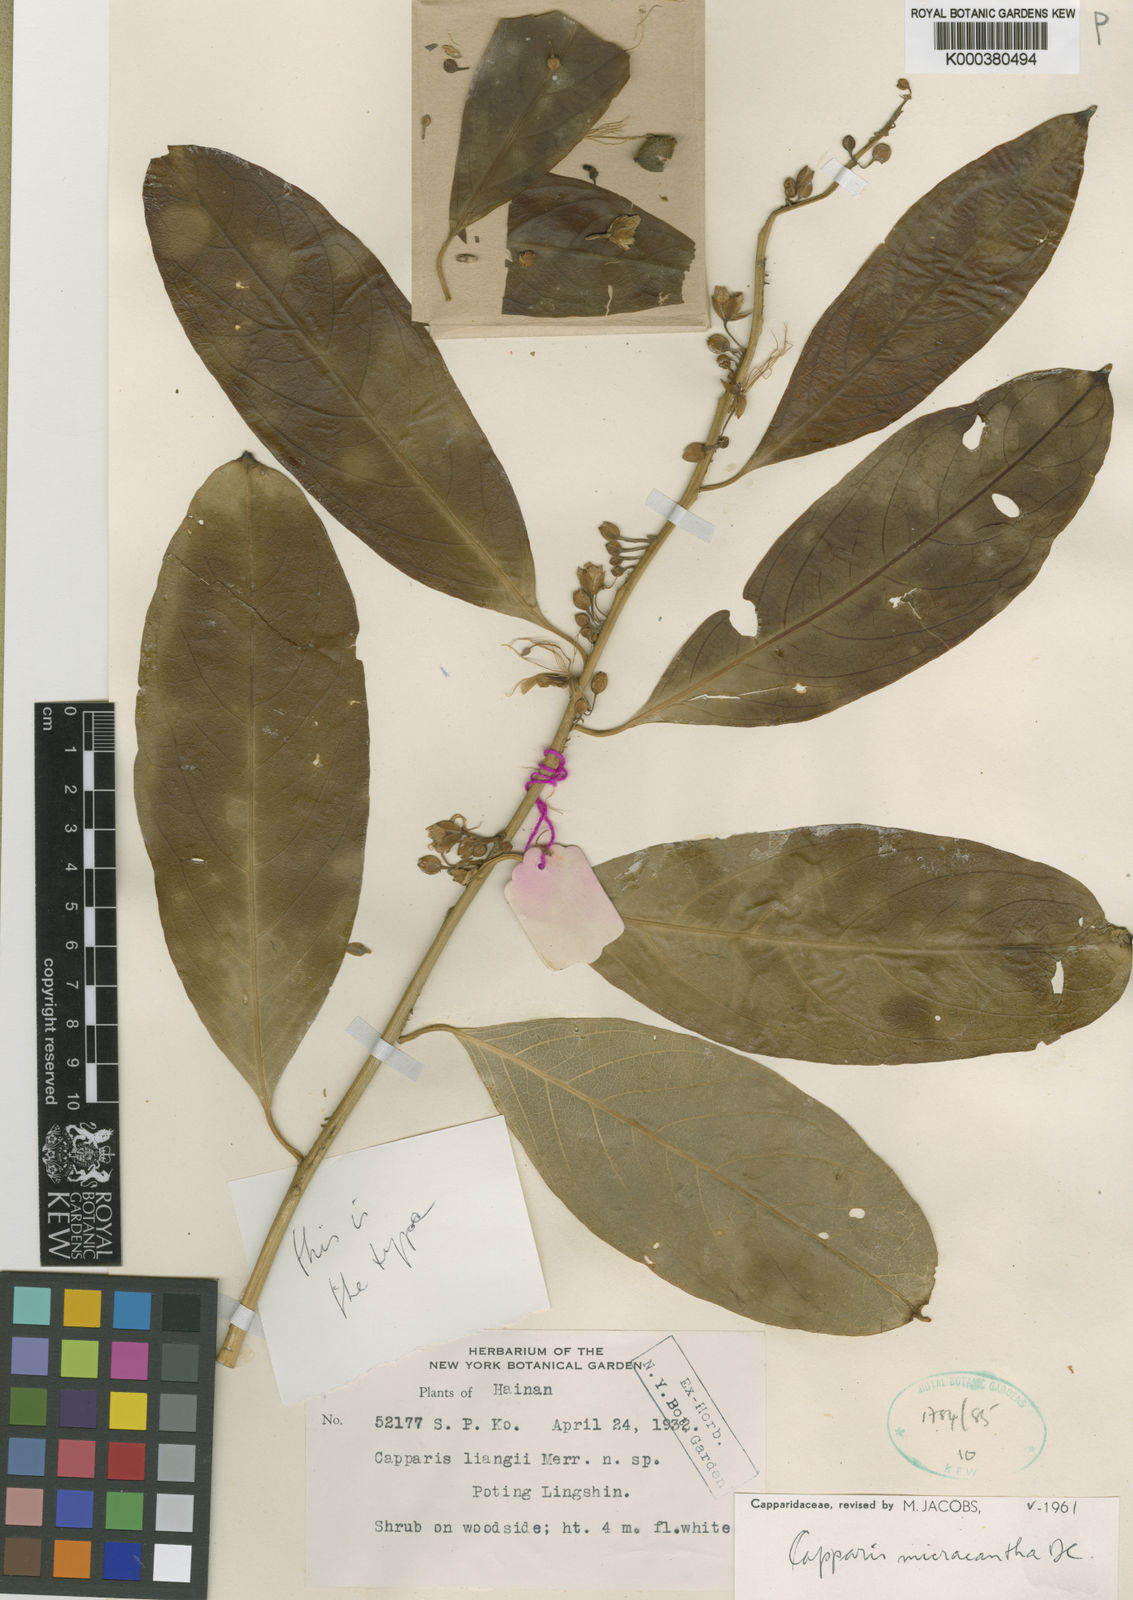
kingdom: Plantae
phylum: Tracheophyta
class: Magnoliopsida
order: Brassicales
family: Capparaceae
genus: Capparis
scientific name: Capparis micrantha
